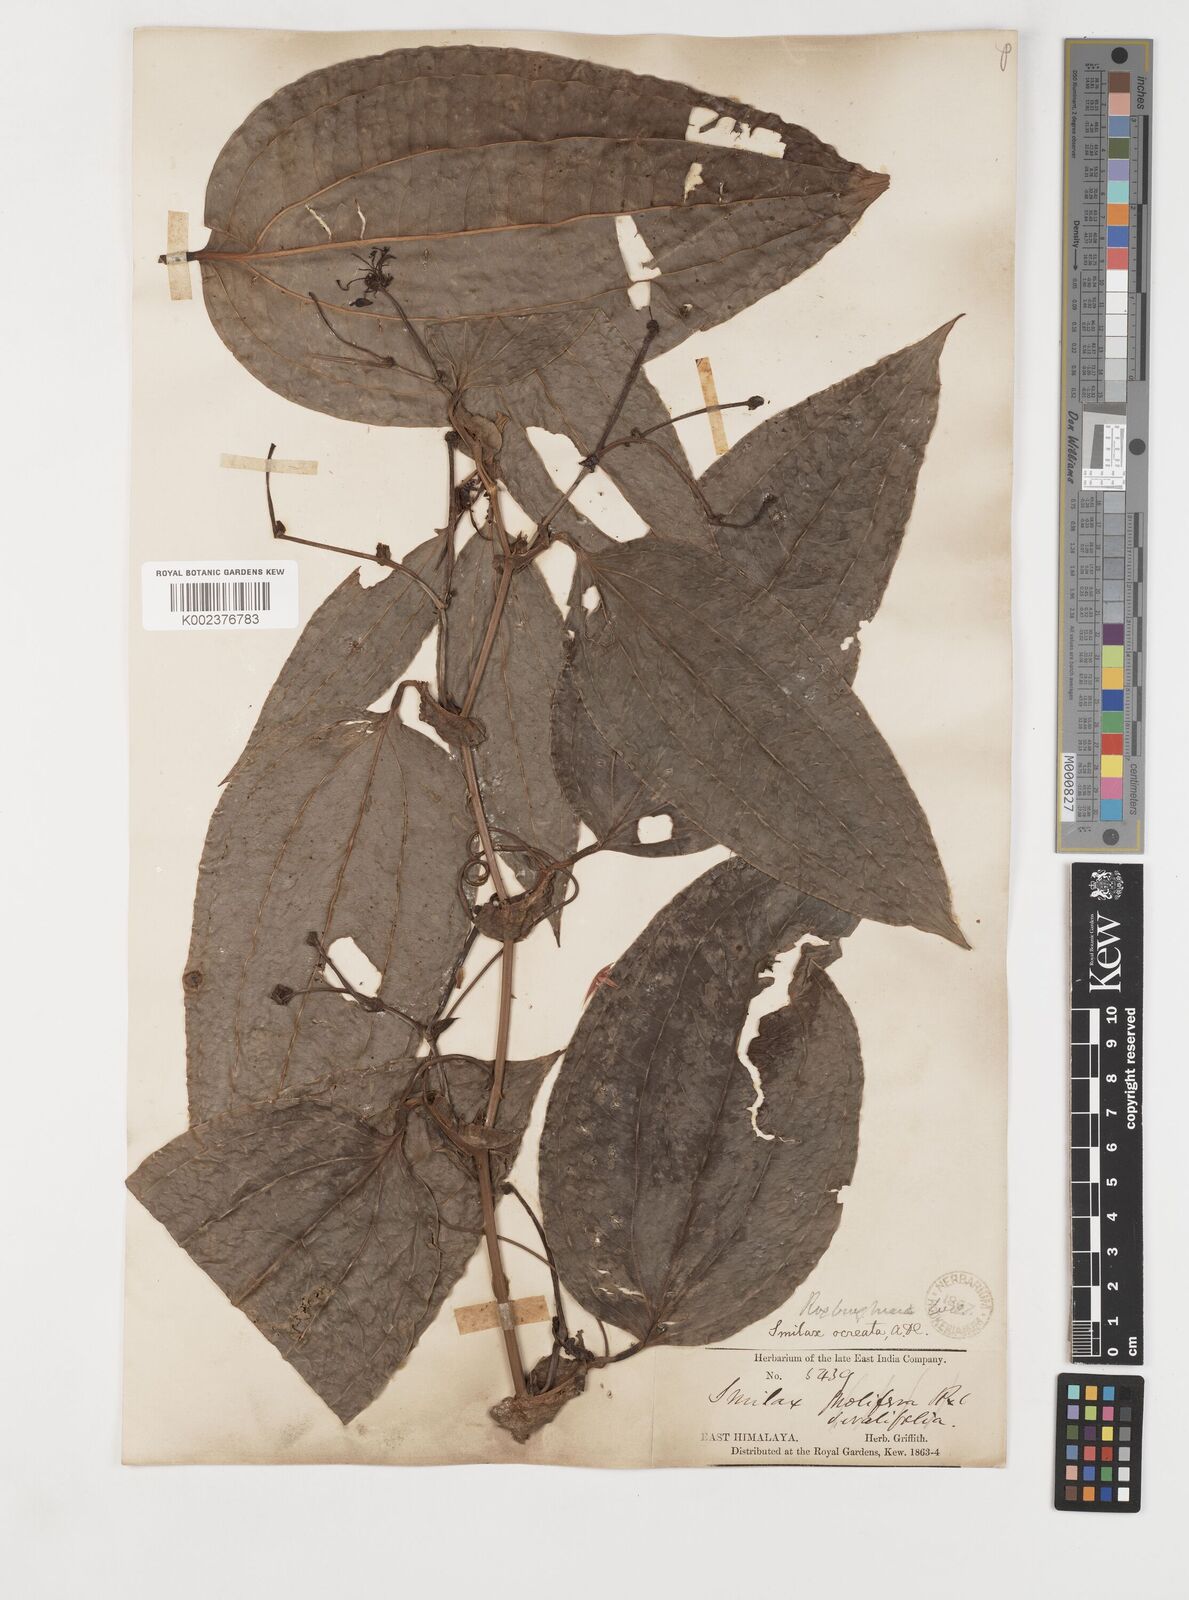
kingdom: Plantae
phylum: Tracheophyta
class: Liliopsida
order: Liliales
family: Smilacaceae
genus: Smilax
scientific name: Smilax roxburghiana
